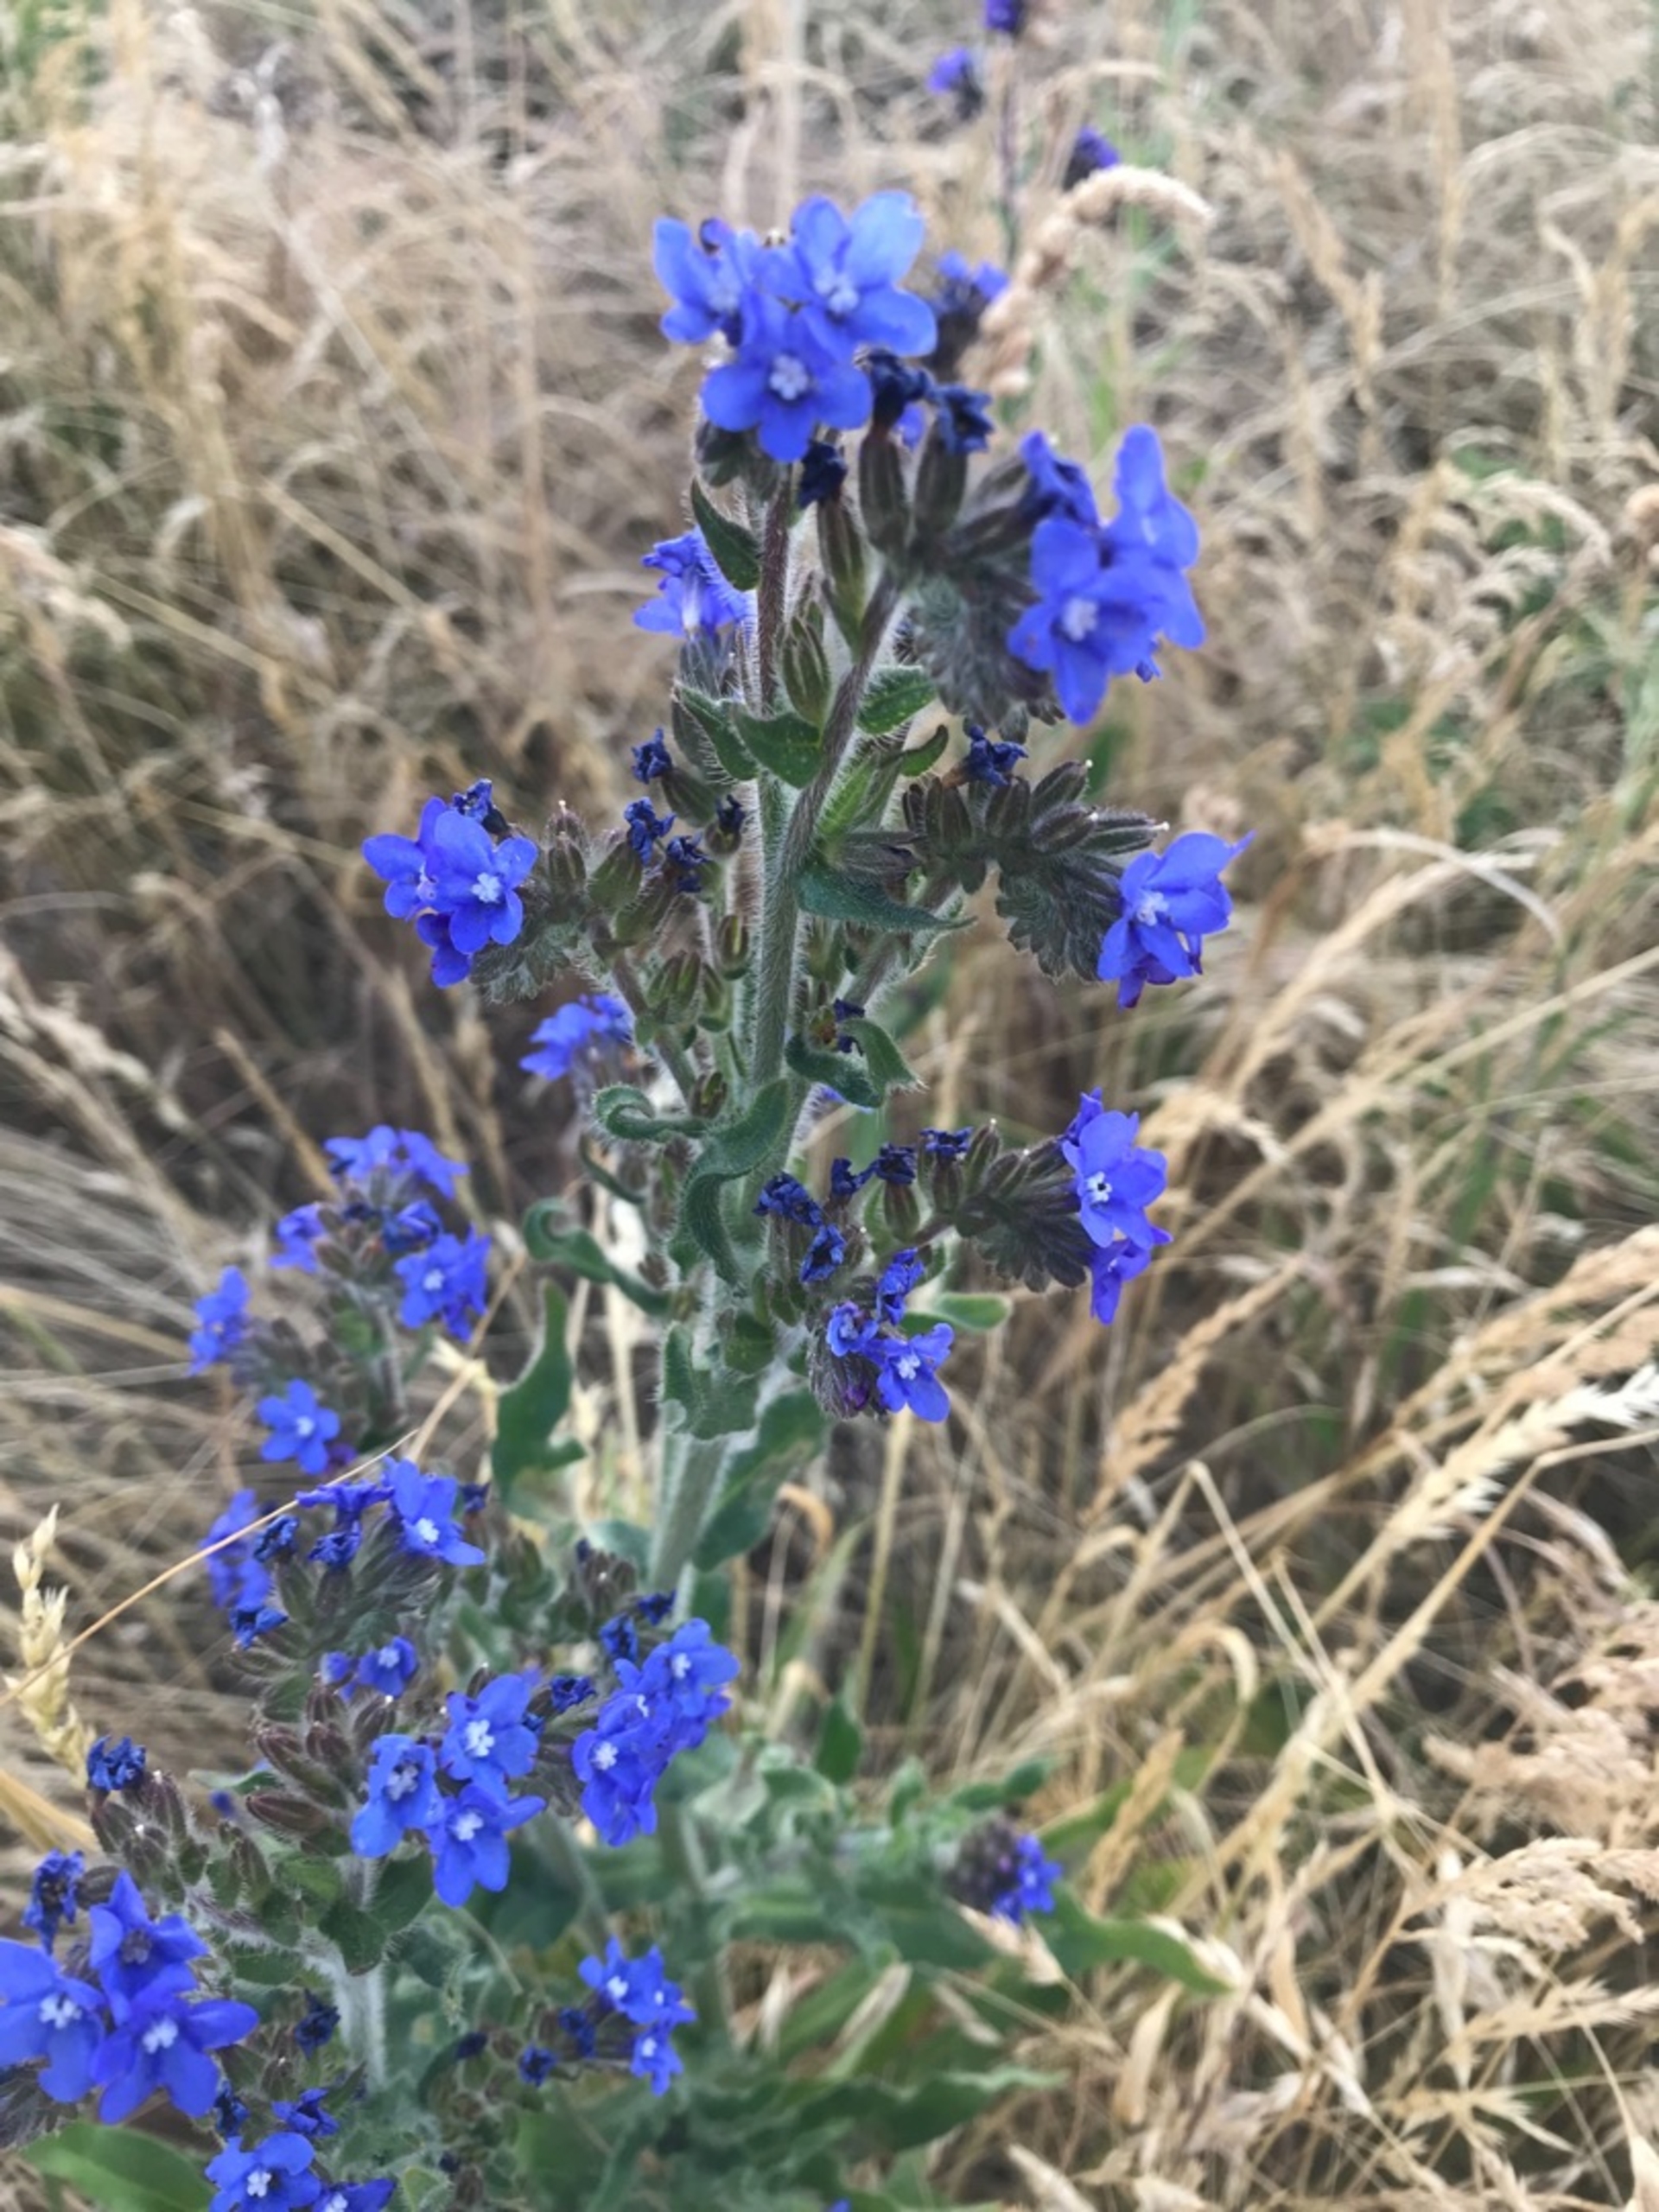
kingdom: Plantae
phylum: Tracheophyta
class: Magnoliopsida
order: Boraginales
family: Boraginaceae
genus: Anchusa
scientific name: Anchusa officinalis
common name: Læge-oksetunge
